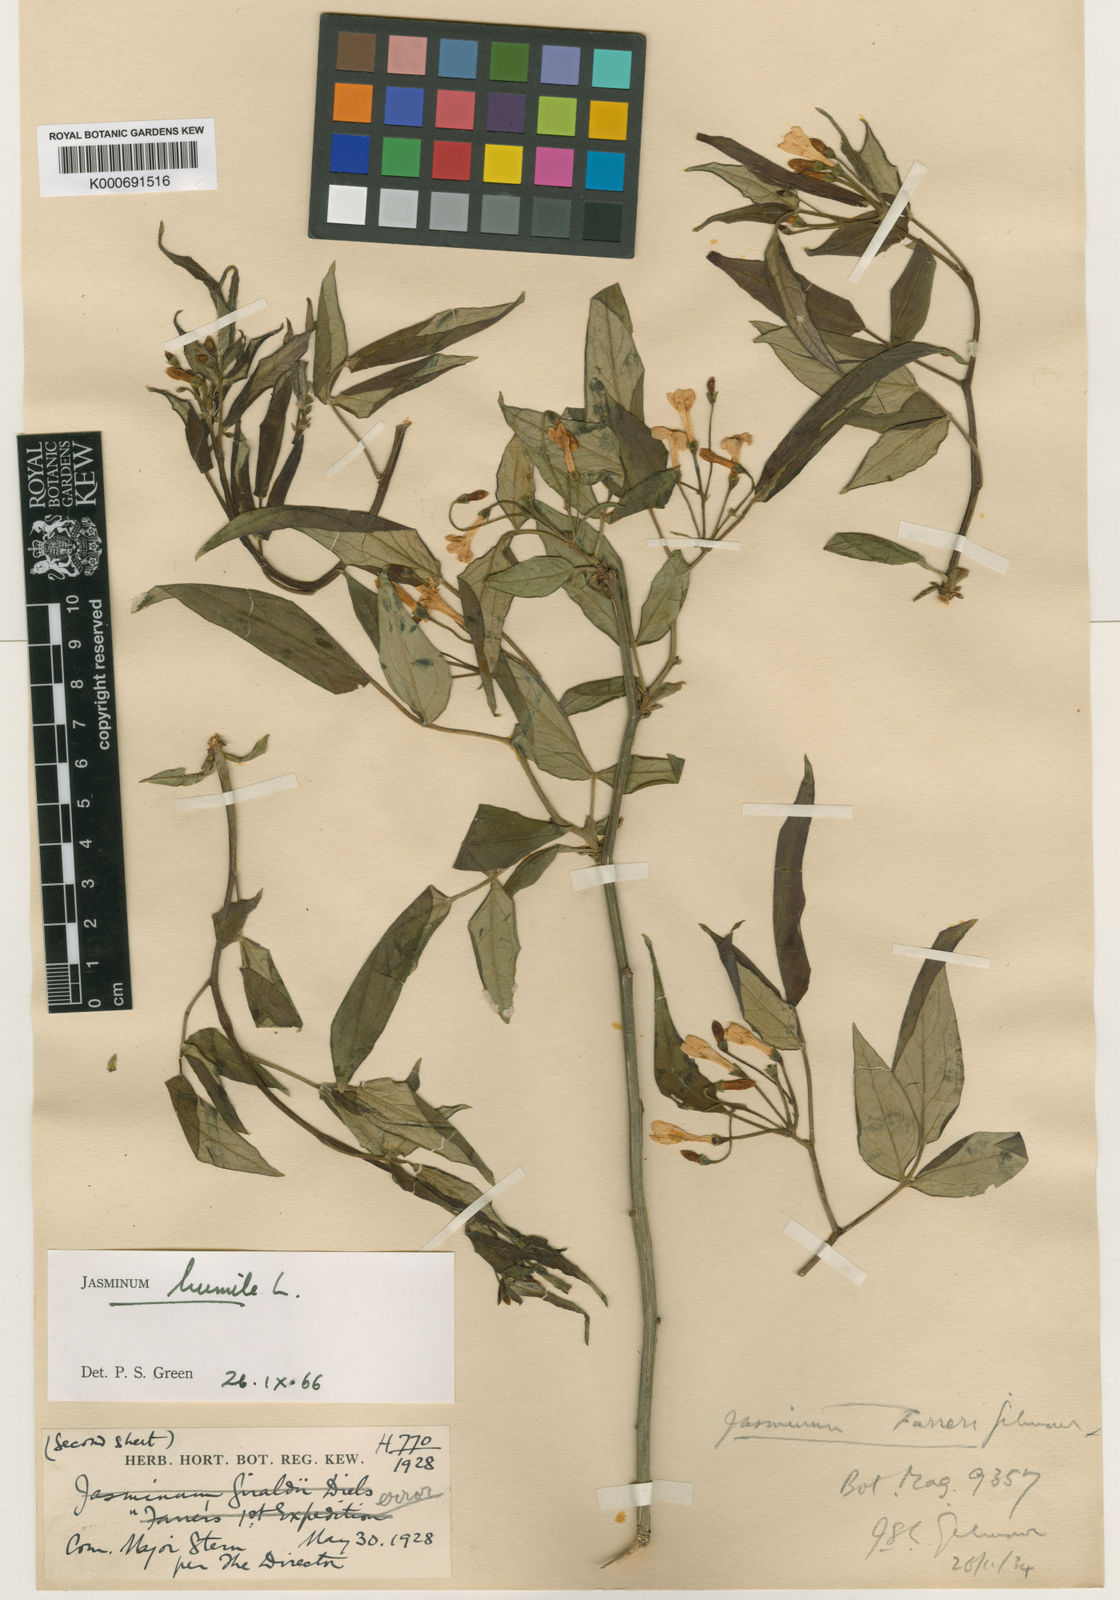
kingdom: Plantae
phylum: Tracheophyta
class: Magnoliopsida
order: Lamiales
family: Oleaceae
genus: Chrysojasminum
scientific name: Chrysojasminum humile
